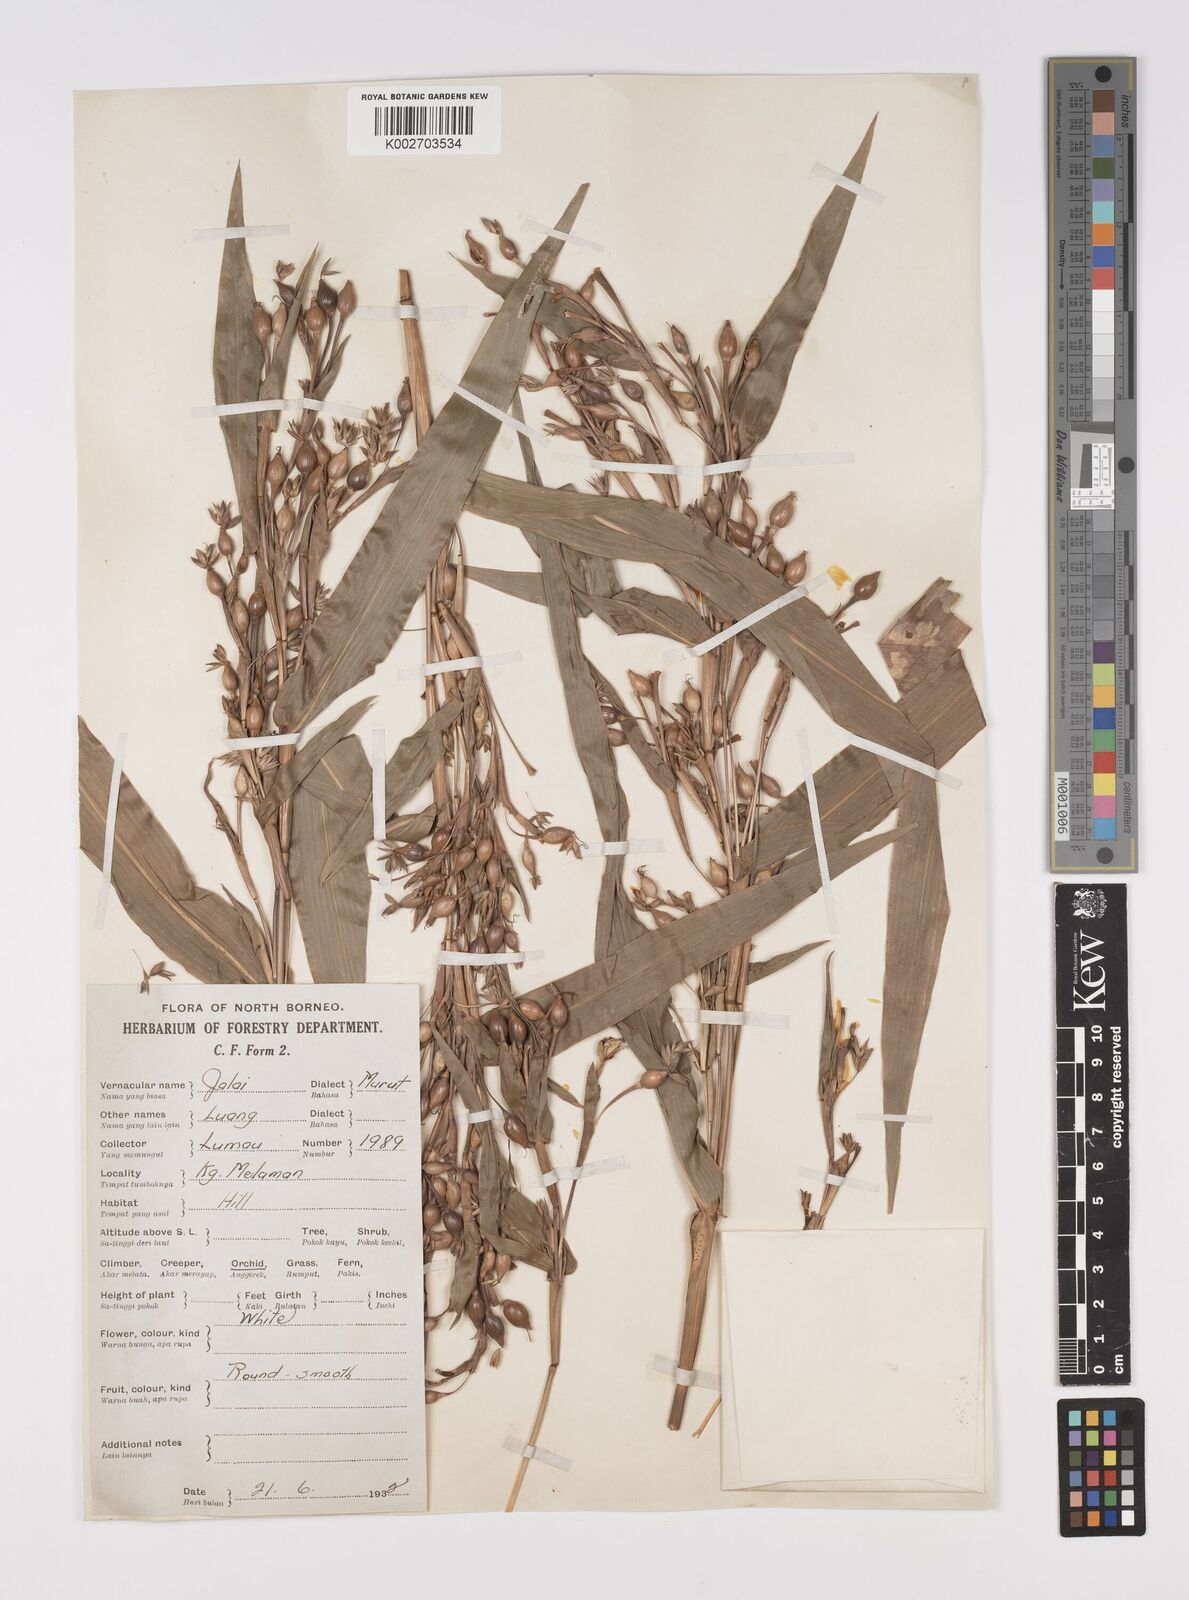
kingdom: Plantae
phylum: Tracheophyta
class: Liliopsida
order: Poales
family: Poaceae
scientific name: Poaceae
